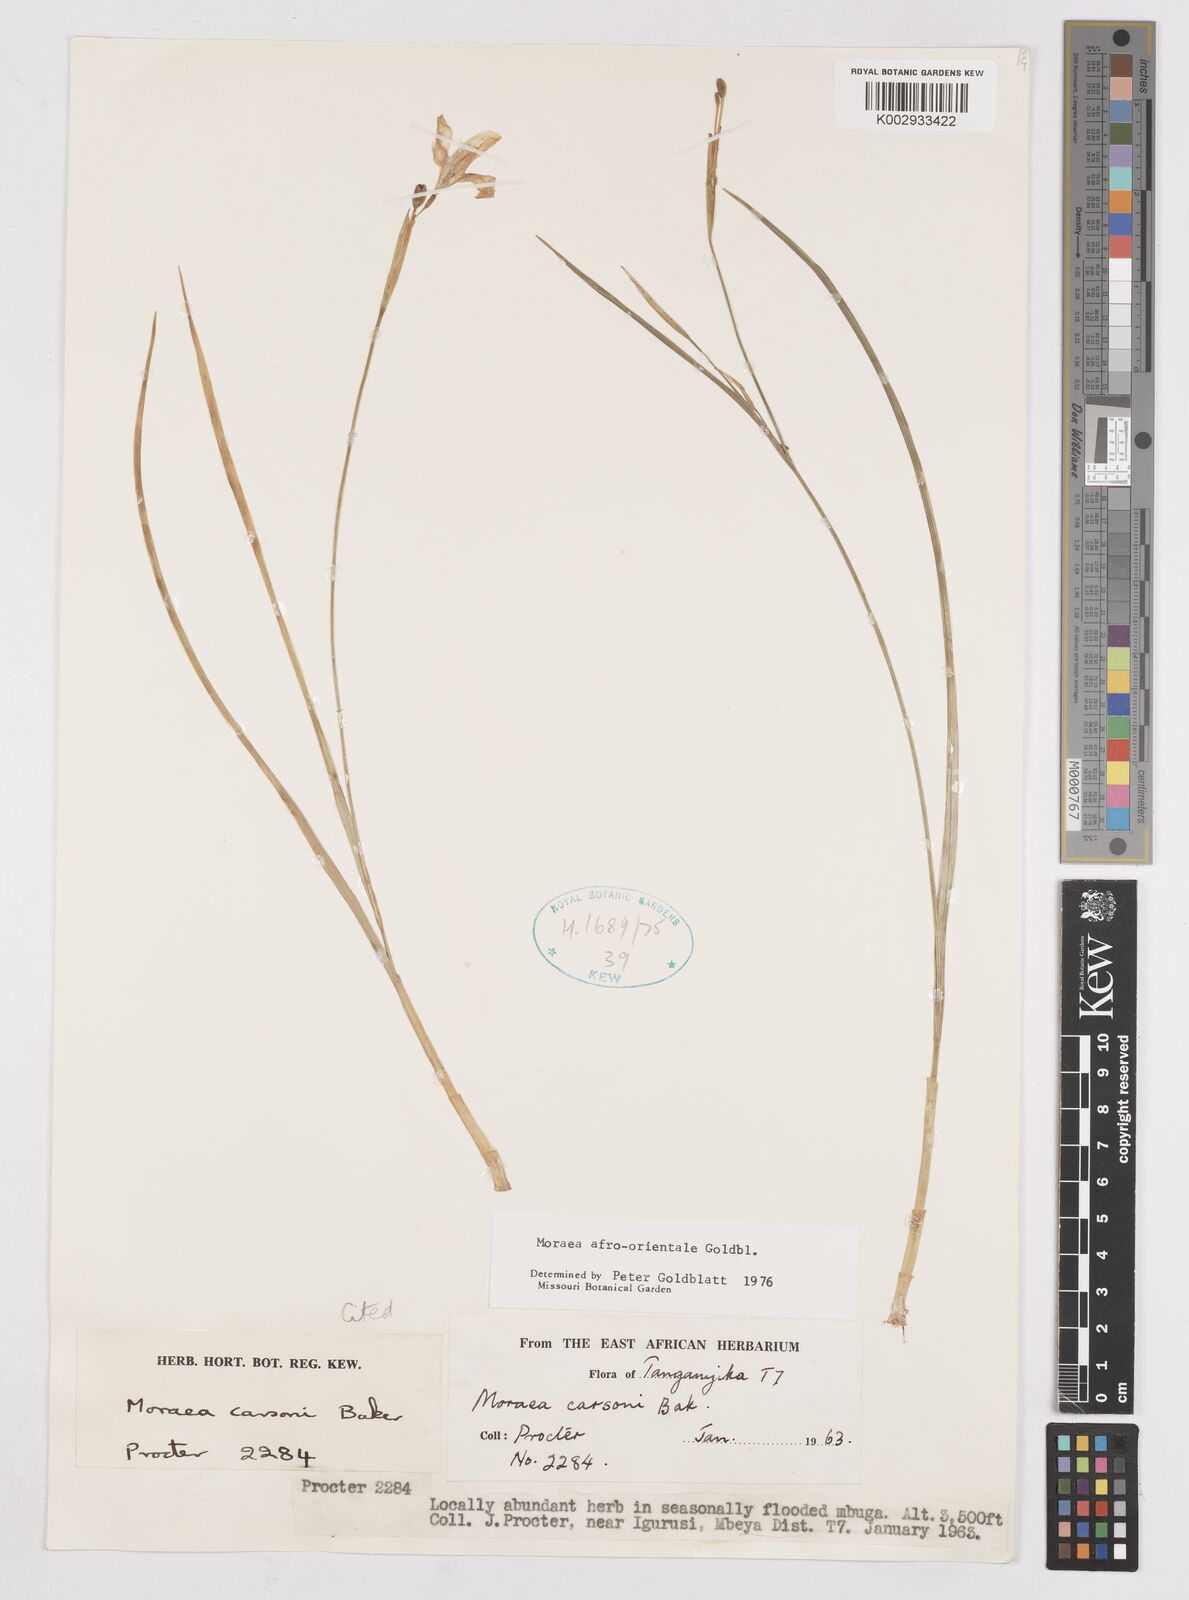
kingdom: Plantae
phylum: Tracheophyta
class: Liliopsida
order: Asparagales
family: Iridaceae
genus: Moraea
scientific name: Moraea afro-orientalis
